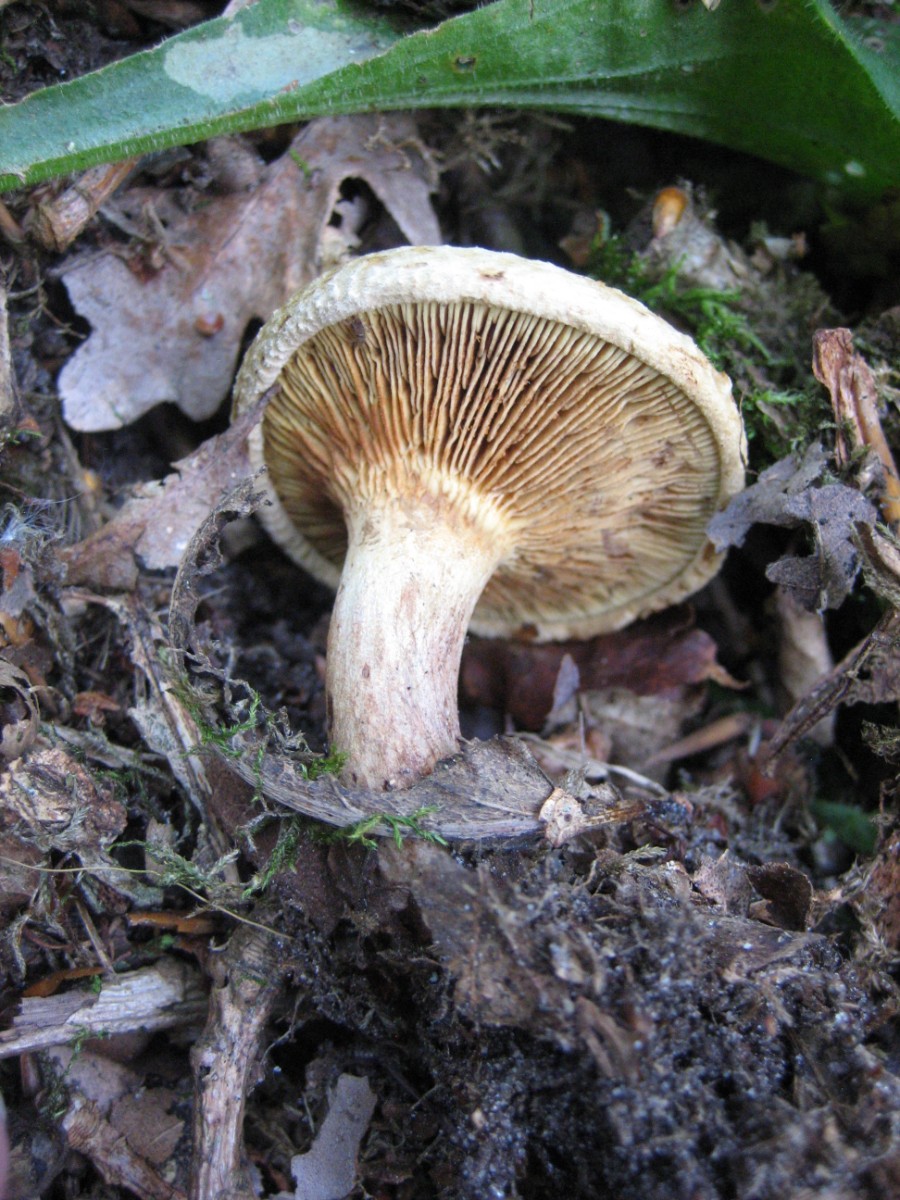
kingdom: Fungi
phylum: Basidiomycota
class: Agaricomycetes
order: Boletales
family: Paxillaceae
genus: Paxillus
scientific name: Paxillus involutus
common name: almindelig netbladhat
